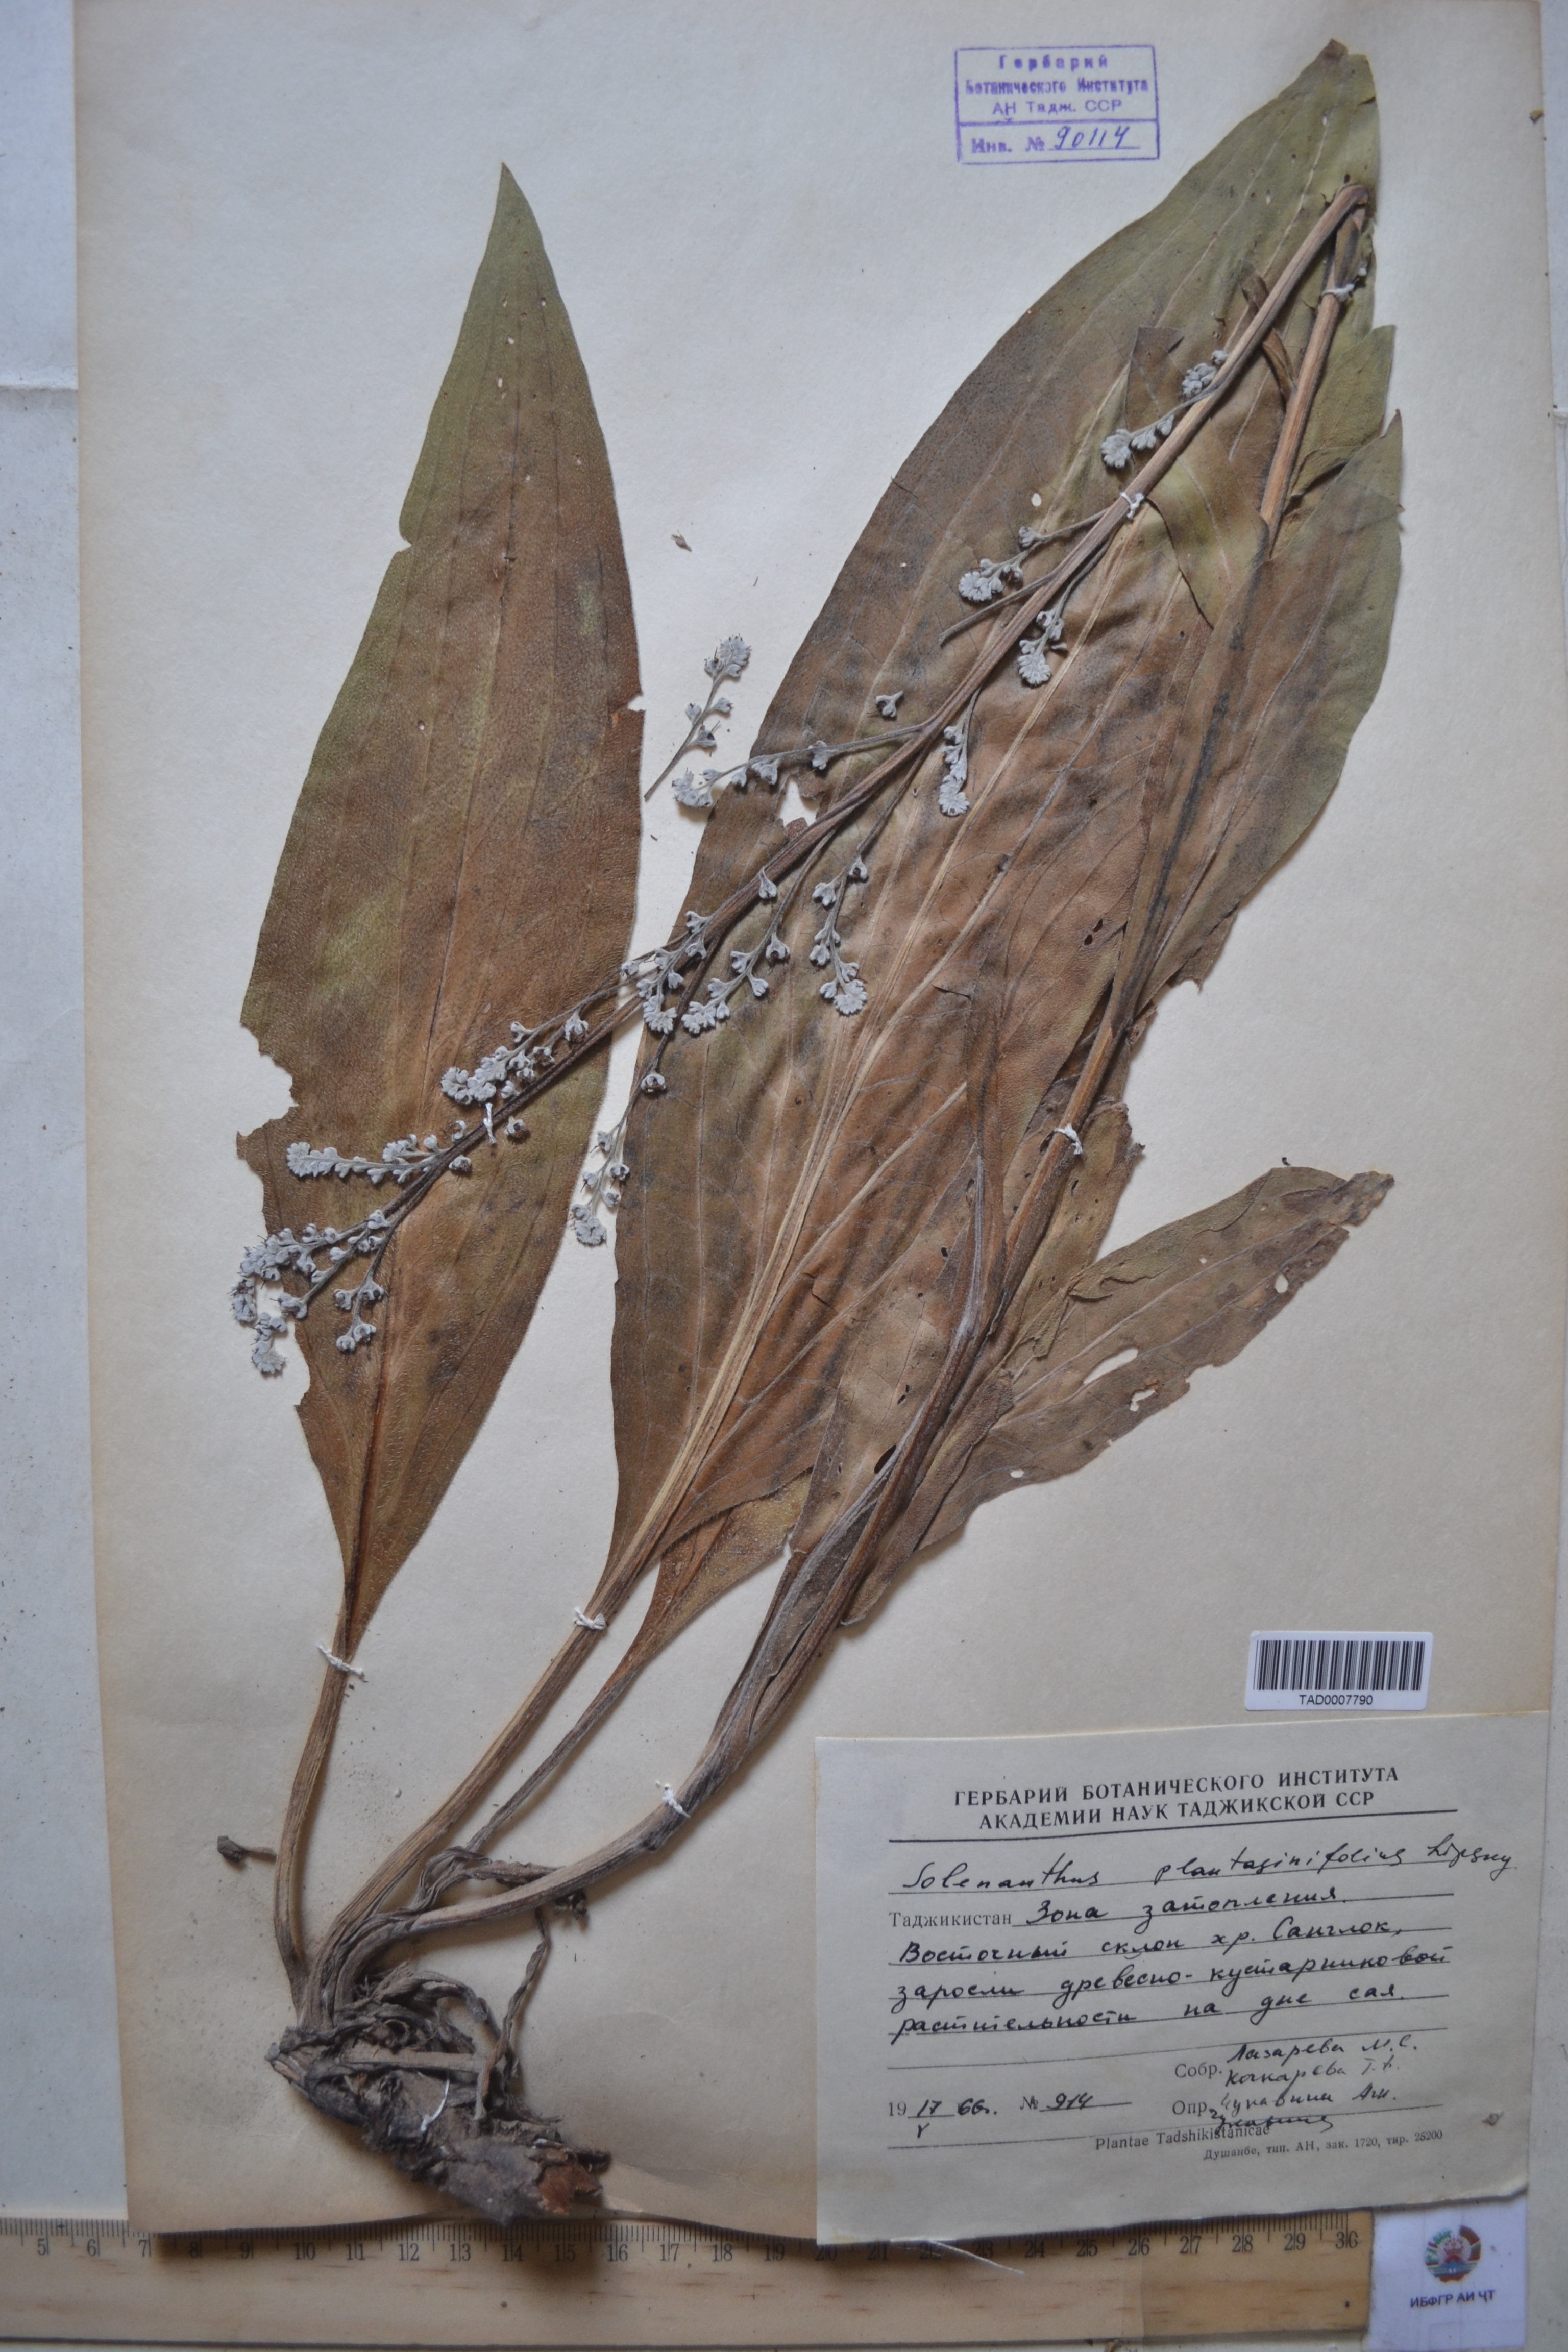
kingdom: Plantae
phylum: Tracheophyta
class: Magnoliopsida
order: Boraginales
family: Boraginaceae
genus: Solenanthus
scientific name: Solenanthus plantaginifolius
